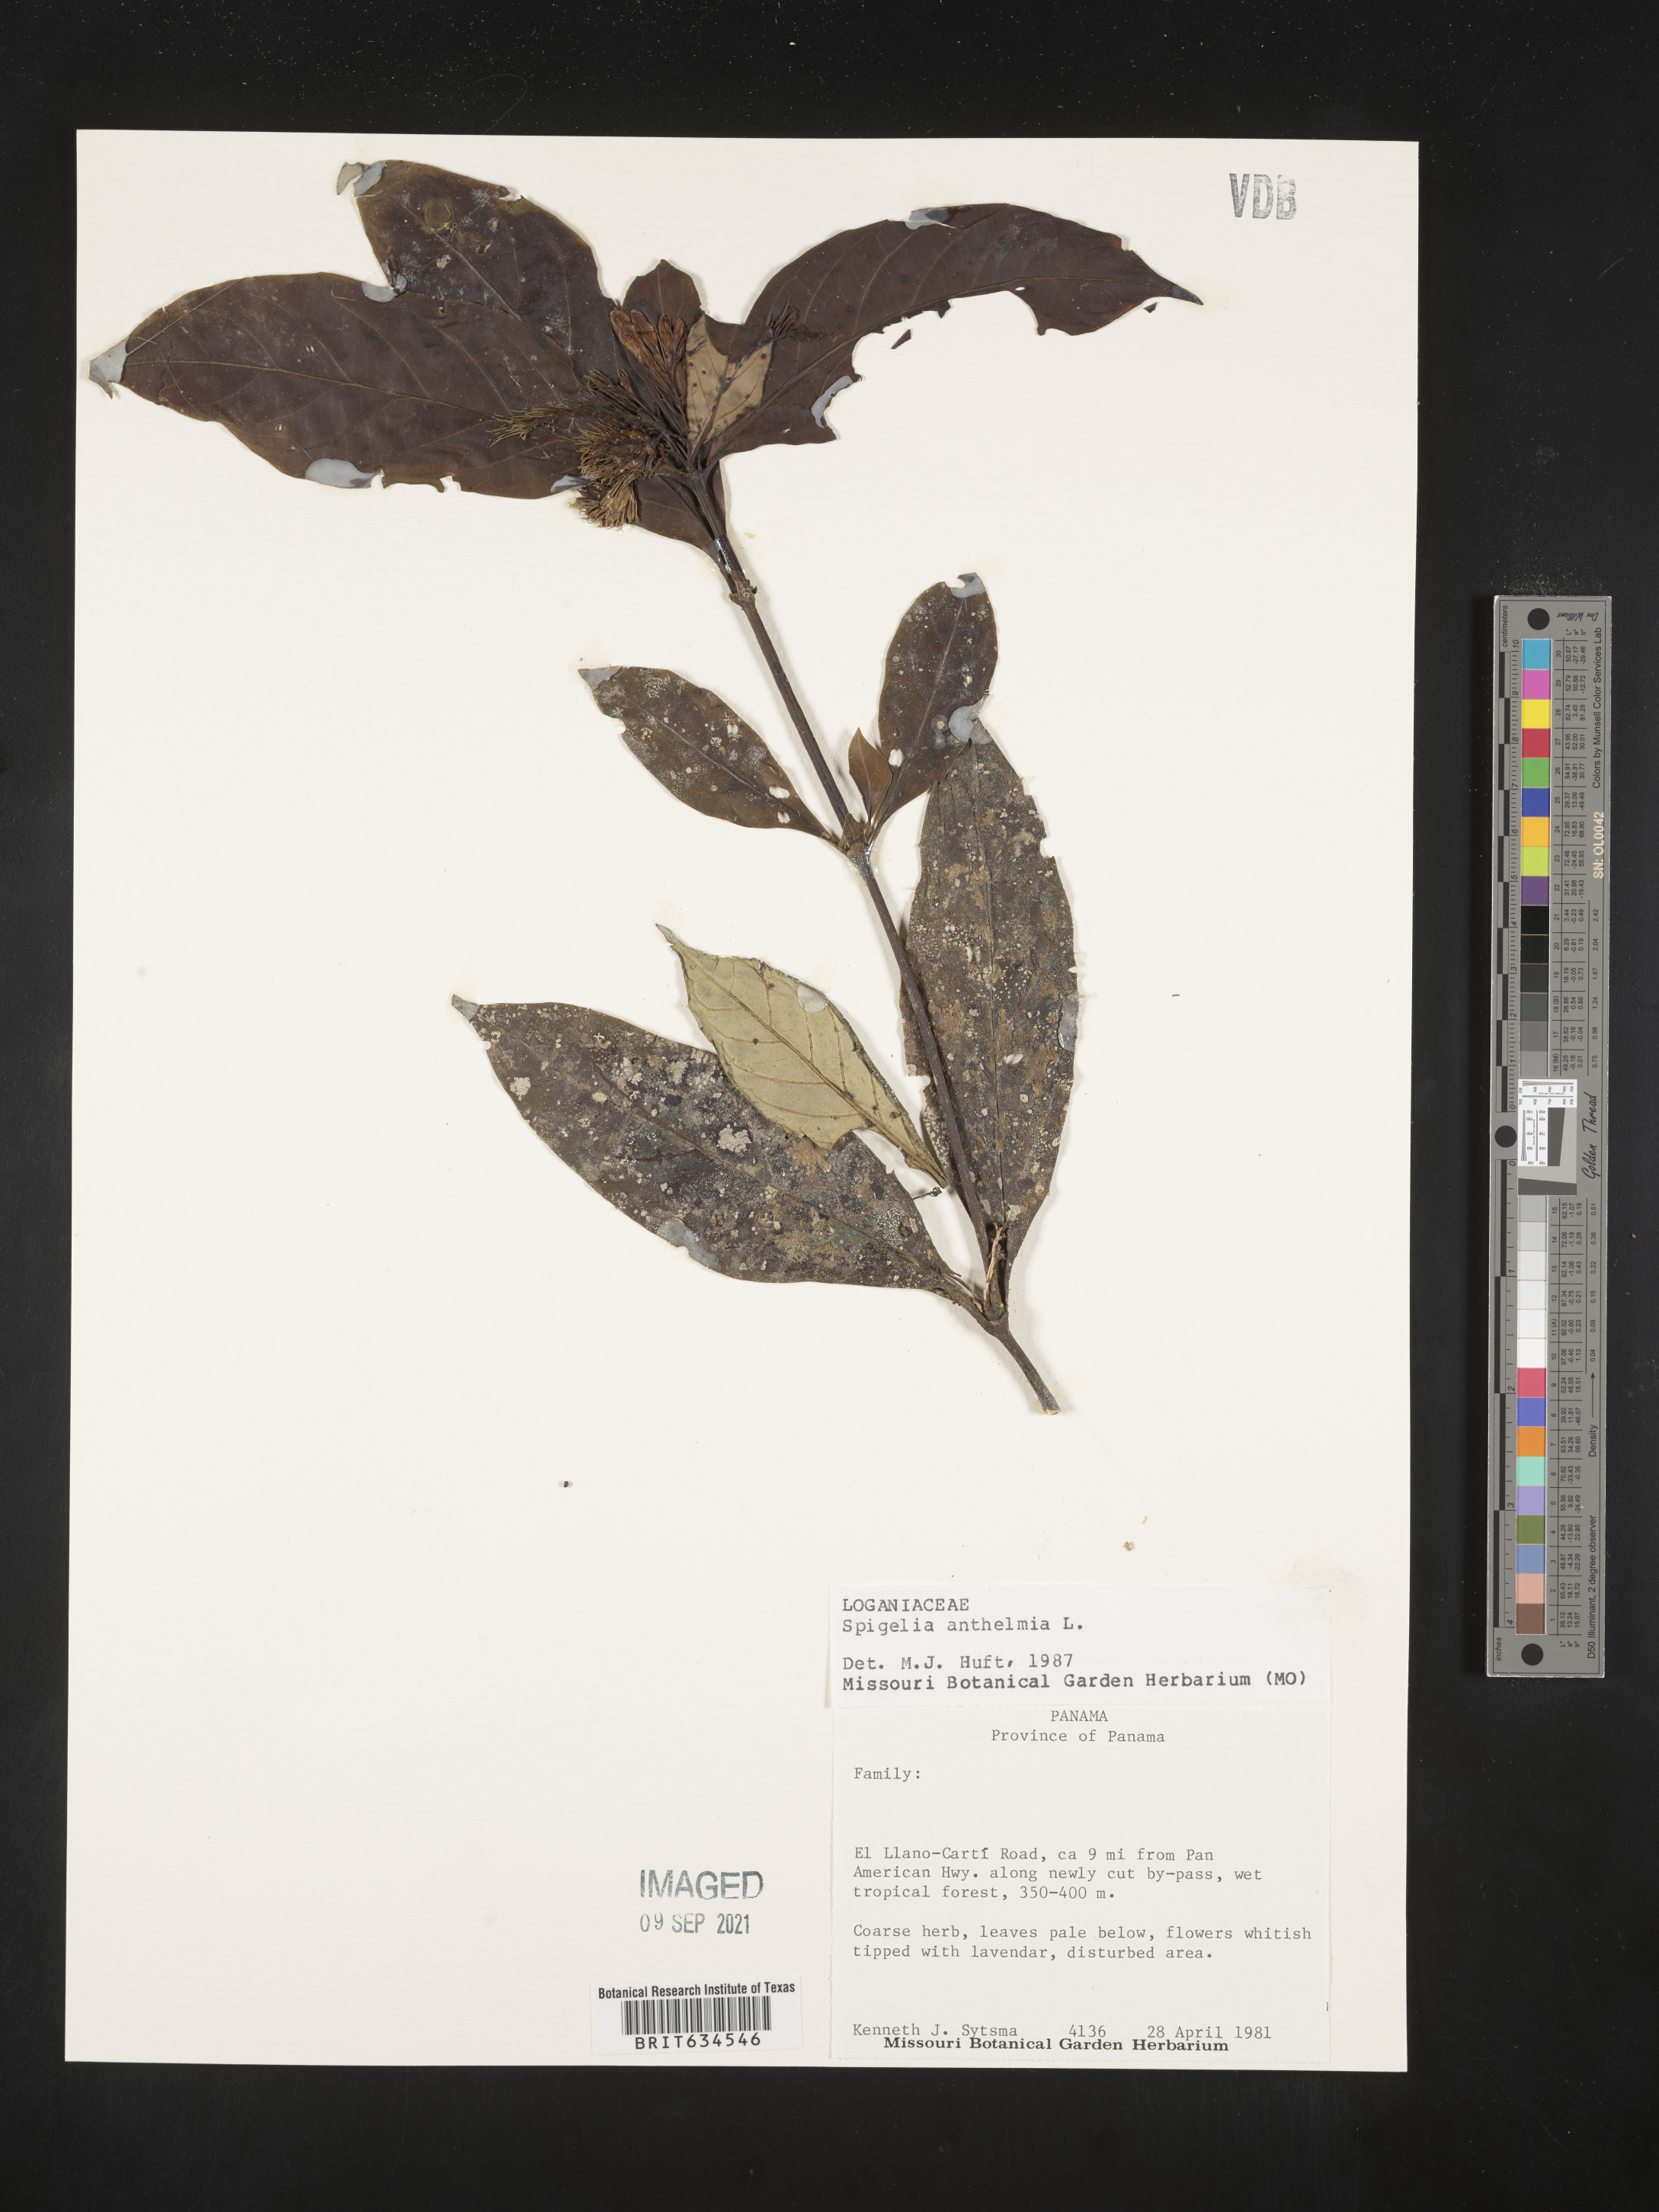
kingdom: Plantae
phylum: Tracheophyta
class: Magnoliopsida
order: Gentianales
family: Loganiaceae
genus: Spigelia
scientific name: Spigelia
